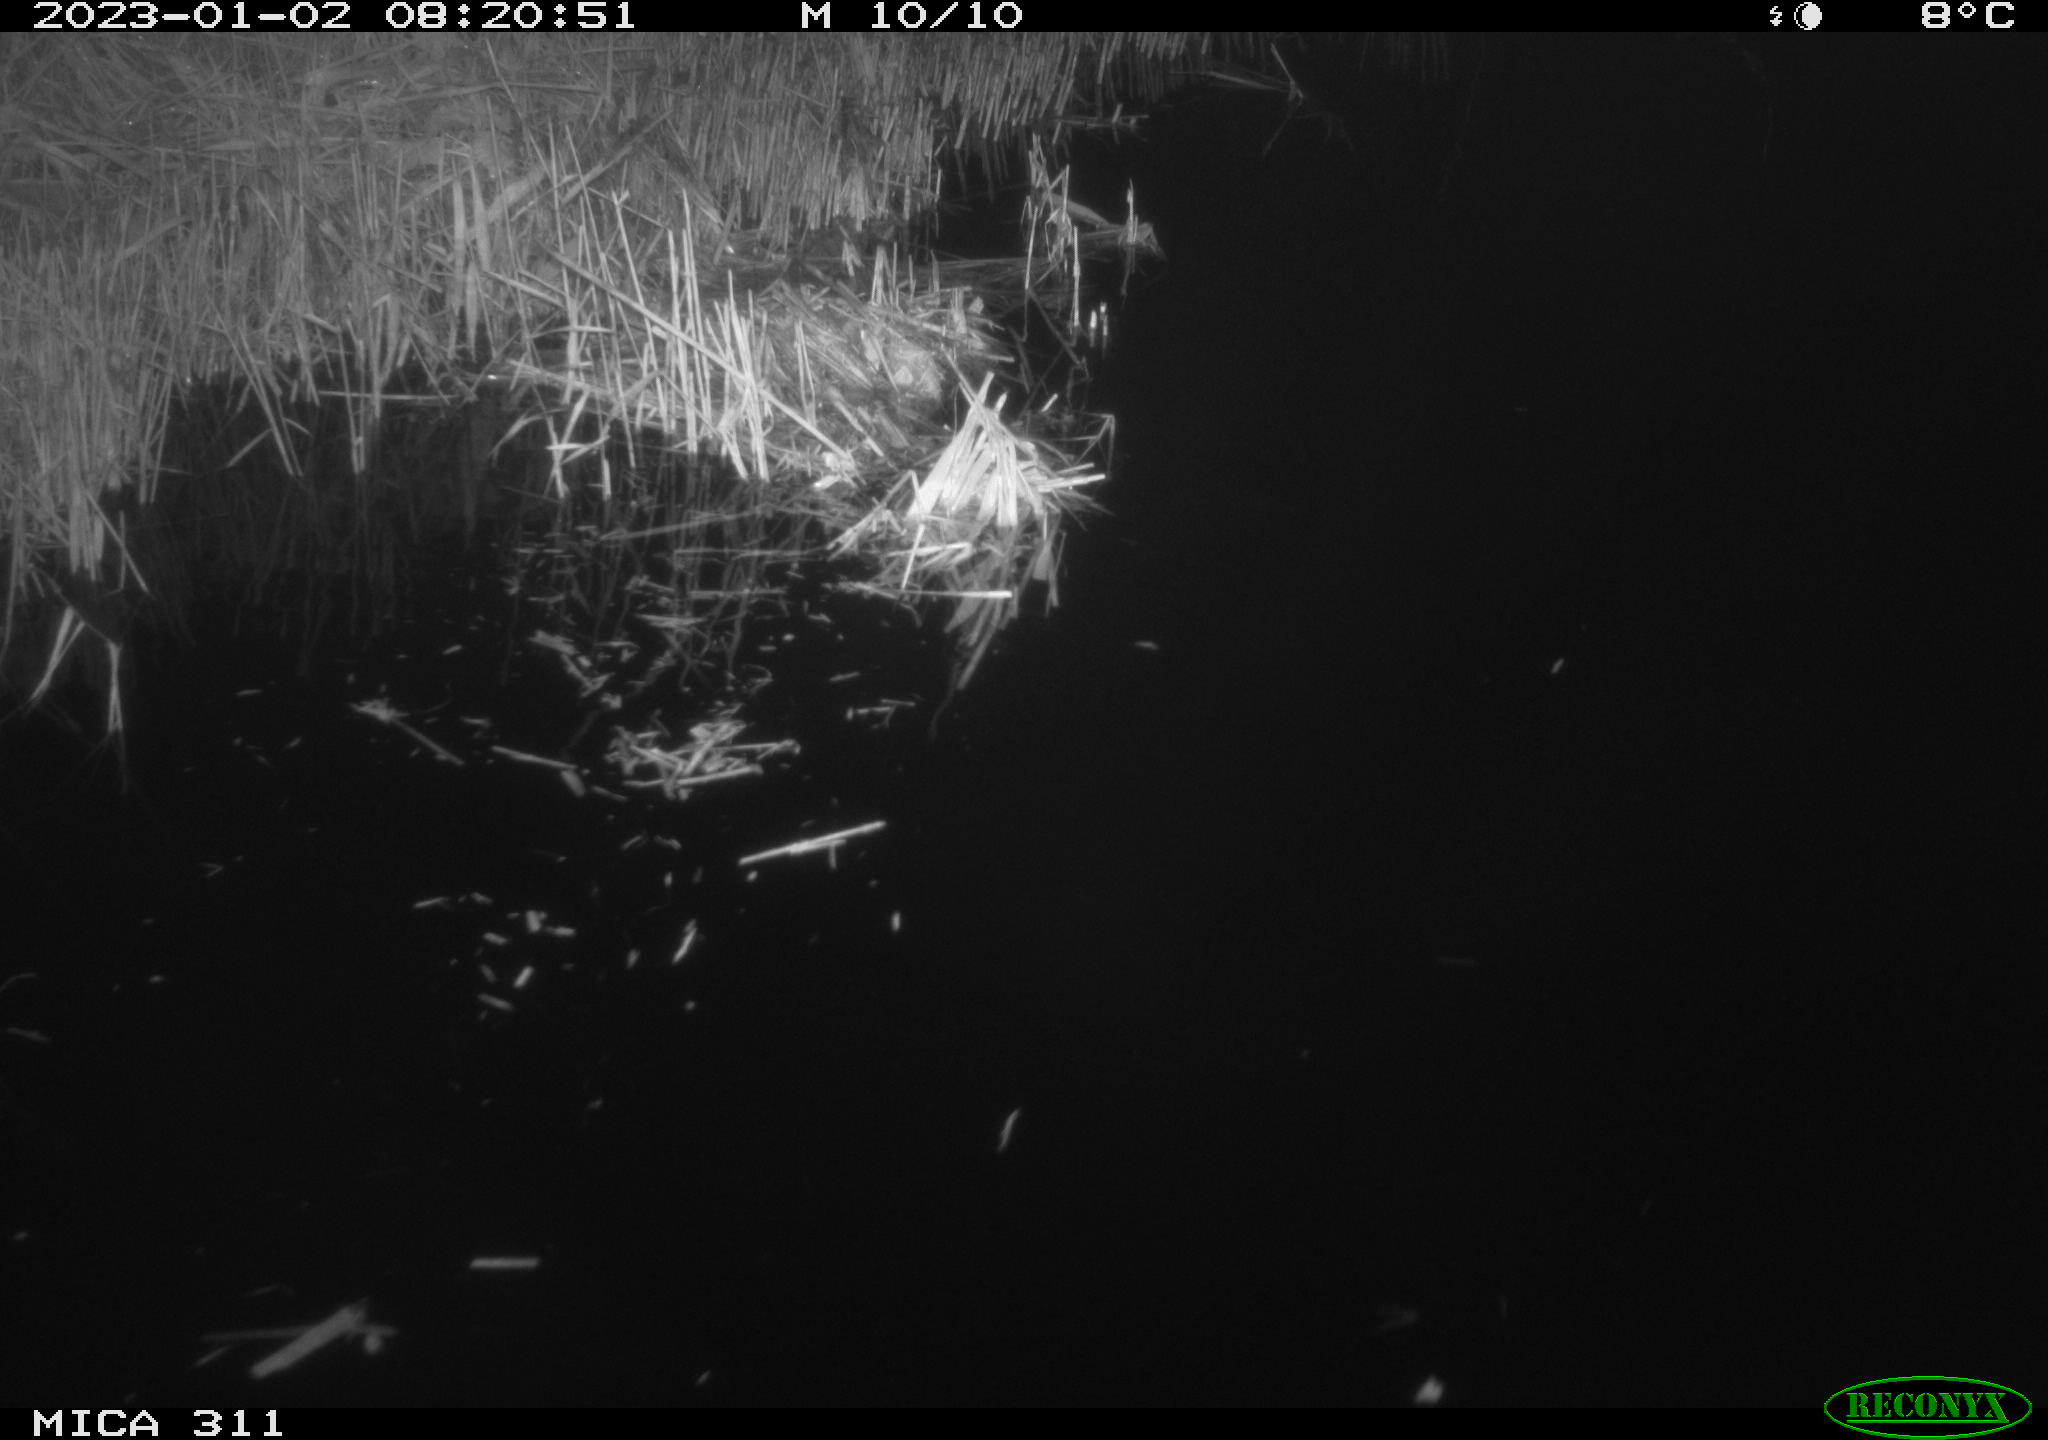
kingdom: Animalia
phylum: Chordata
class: Aves
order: Gruiformes
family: Rallidae
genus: Gallinula
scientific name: Gallinula chloropus
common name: Common moorhen
